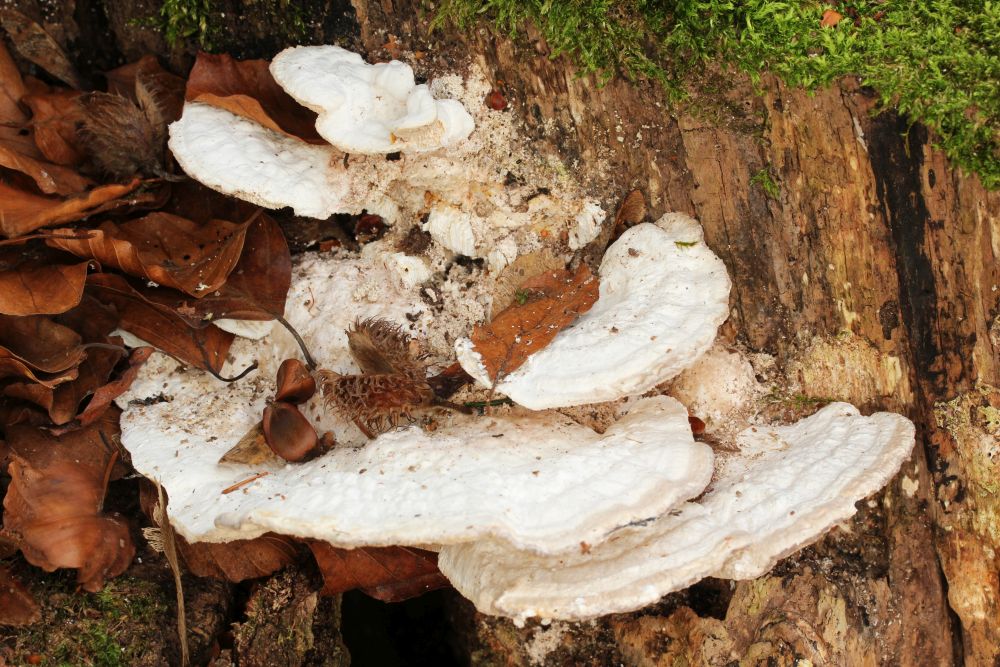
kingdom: Fungi
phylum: Basidiomycota
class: Agaricomycetes
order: Polyporales
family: Polyporaceae
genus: Trametes
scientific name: Trametes gibbosa
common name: puklet læderporesvamp
